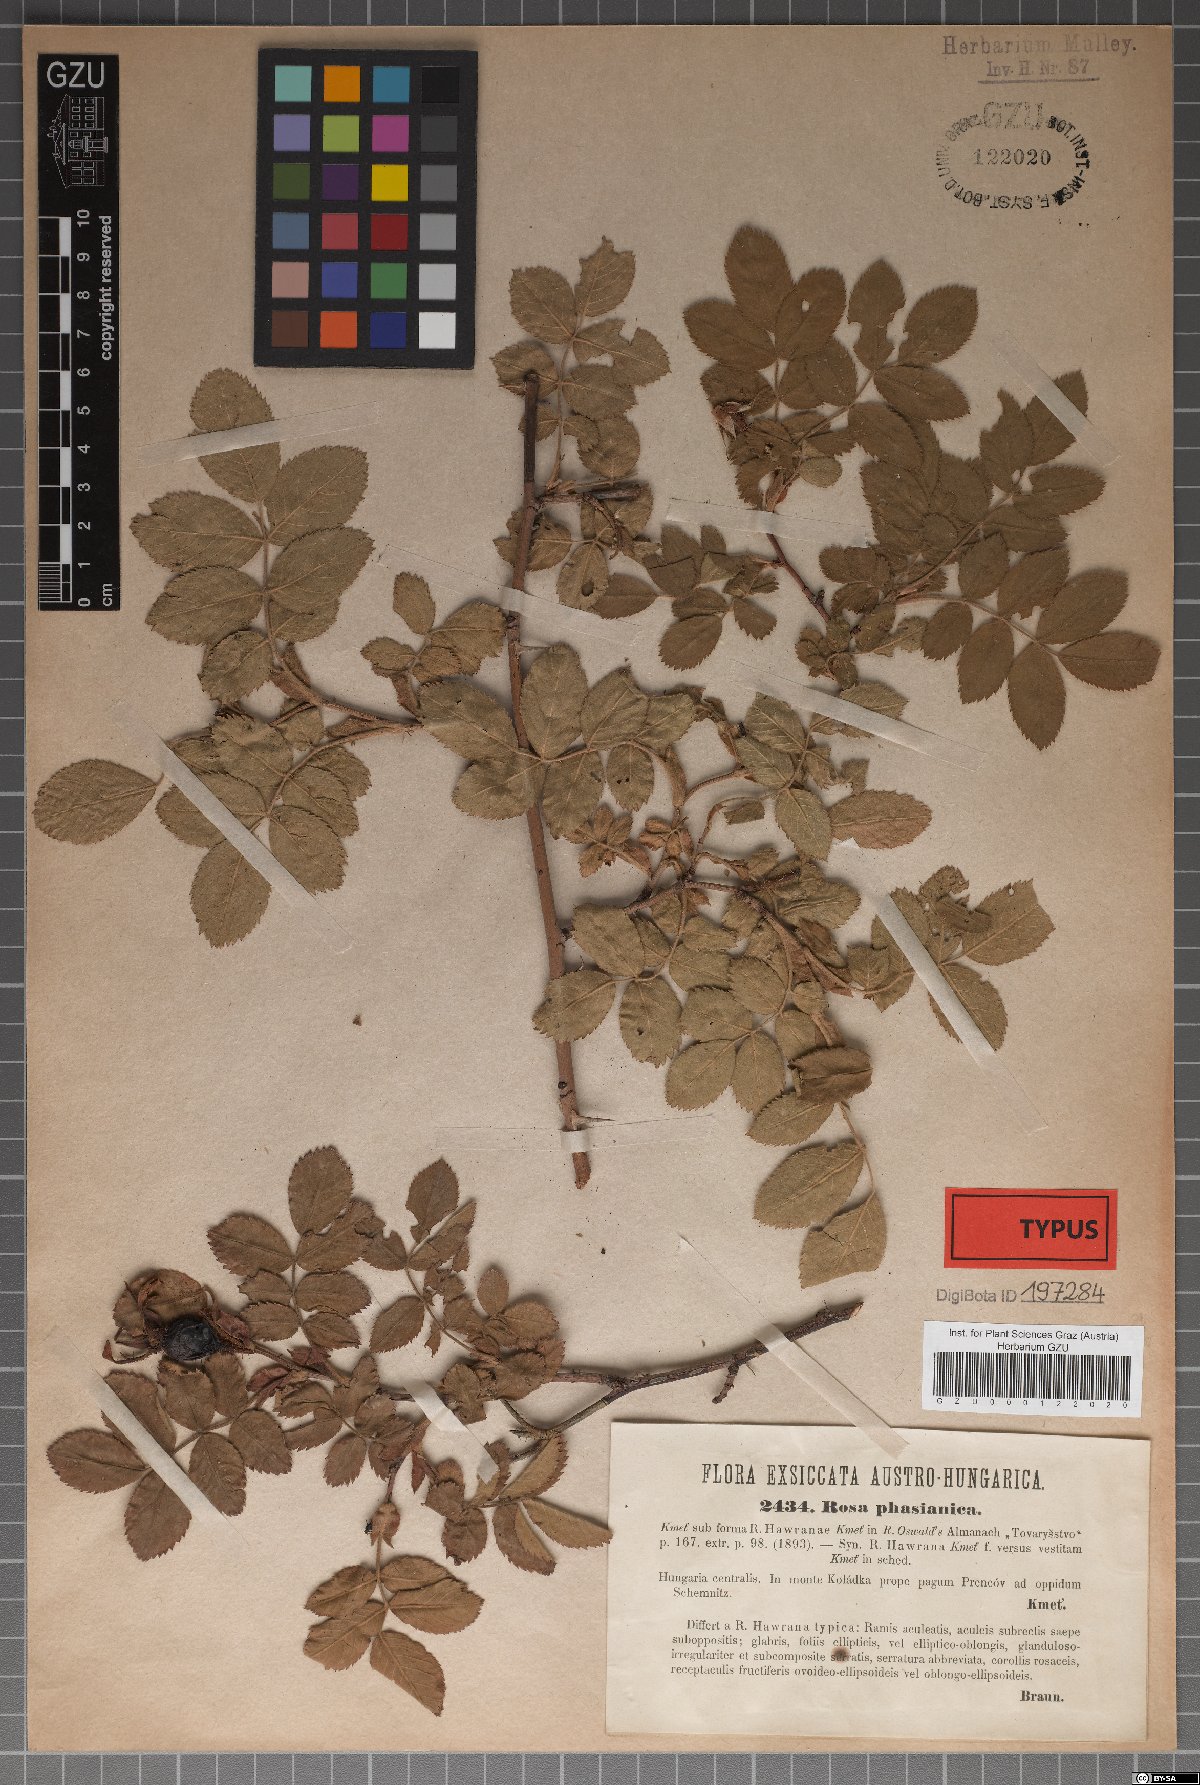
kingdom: Plantae
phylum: Tracheophyta
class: Magnoliopsida
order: Rosales
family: Rosaceae
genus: Rosa
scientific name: Rosa pseudoscabriuscula
